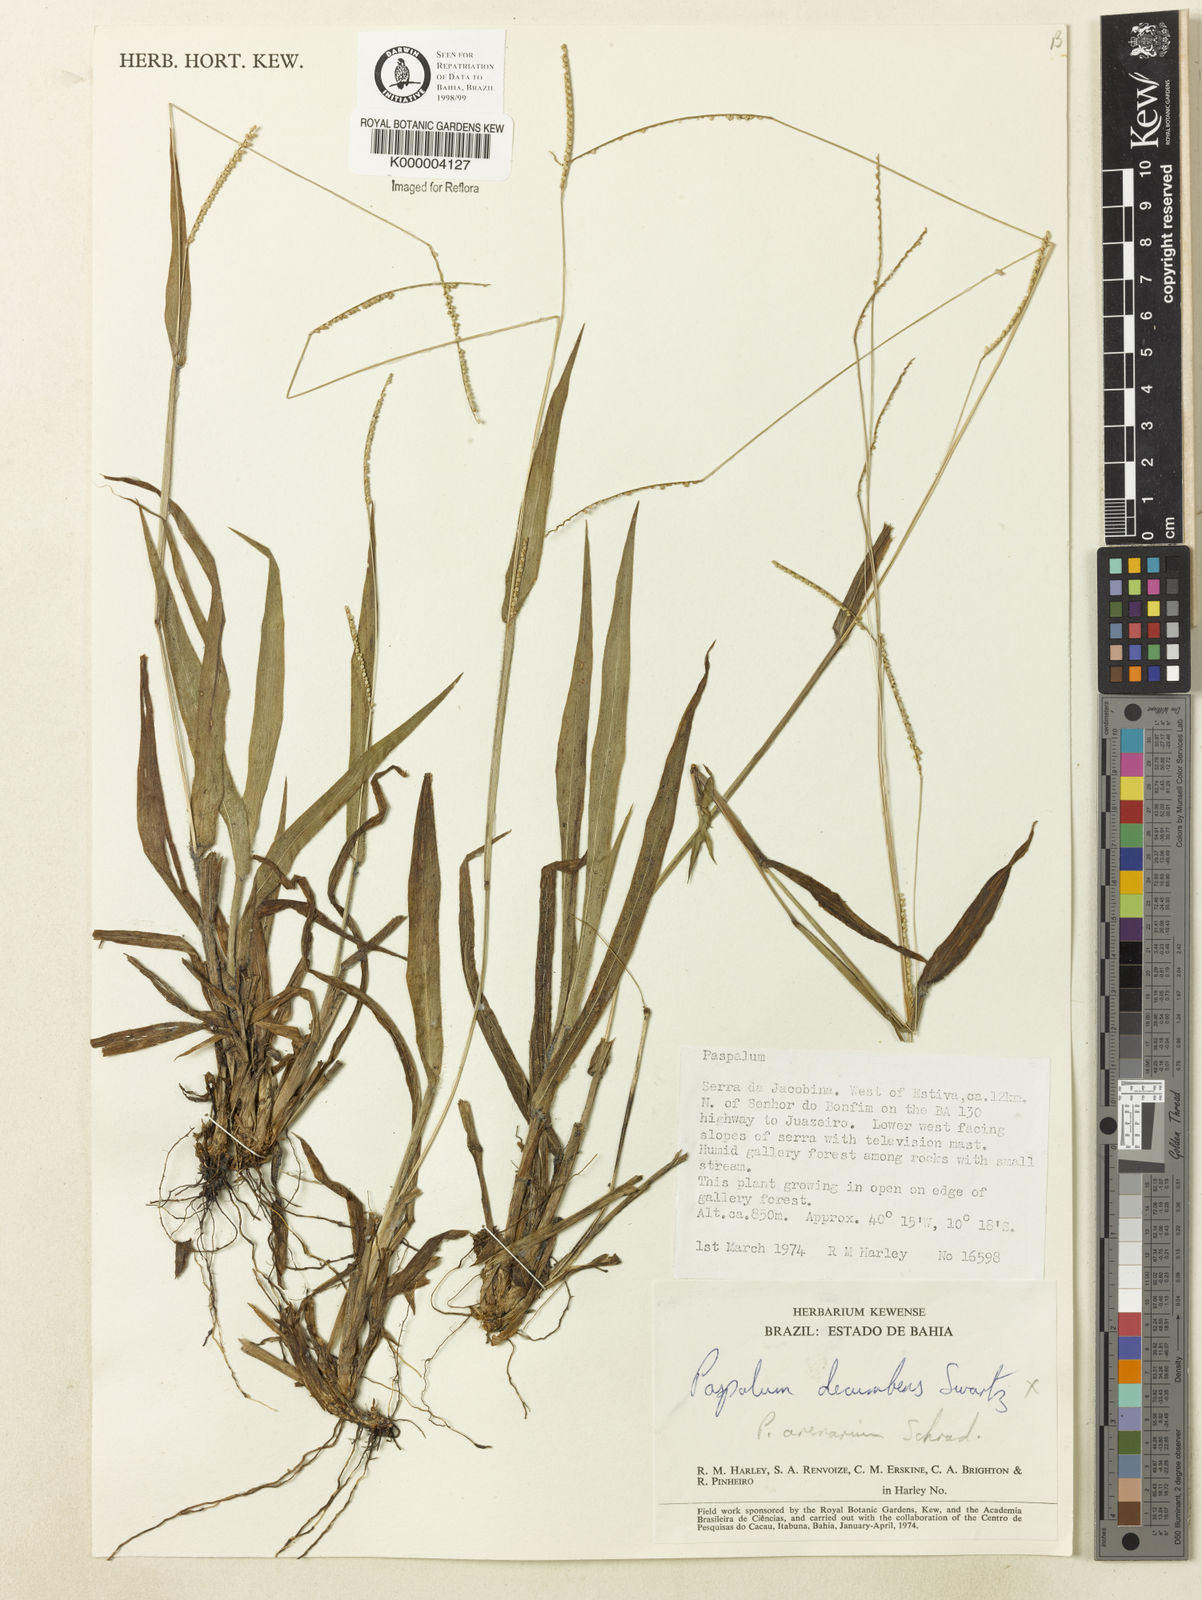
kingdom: Plantae
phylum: Tracheophyta
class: Liliopsida
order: Poales
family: Poaceae
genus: Paspalum
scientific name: Paspalum arenarium
